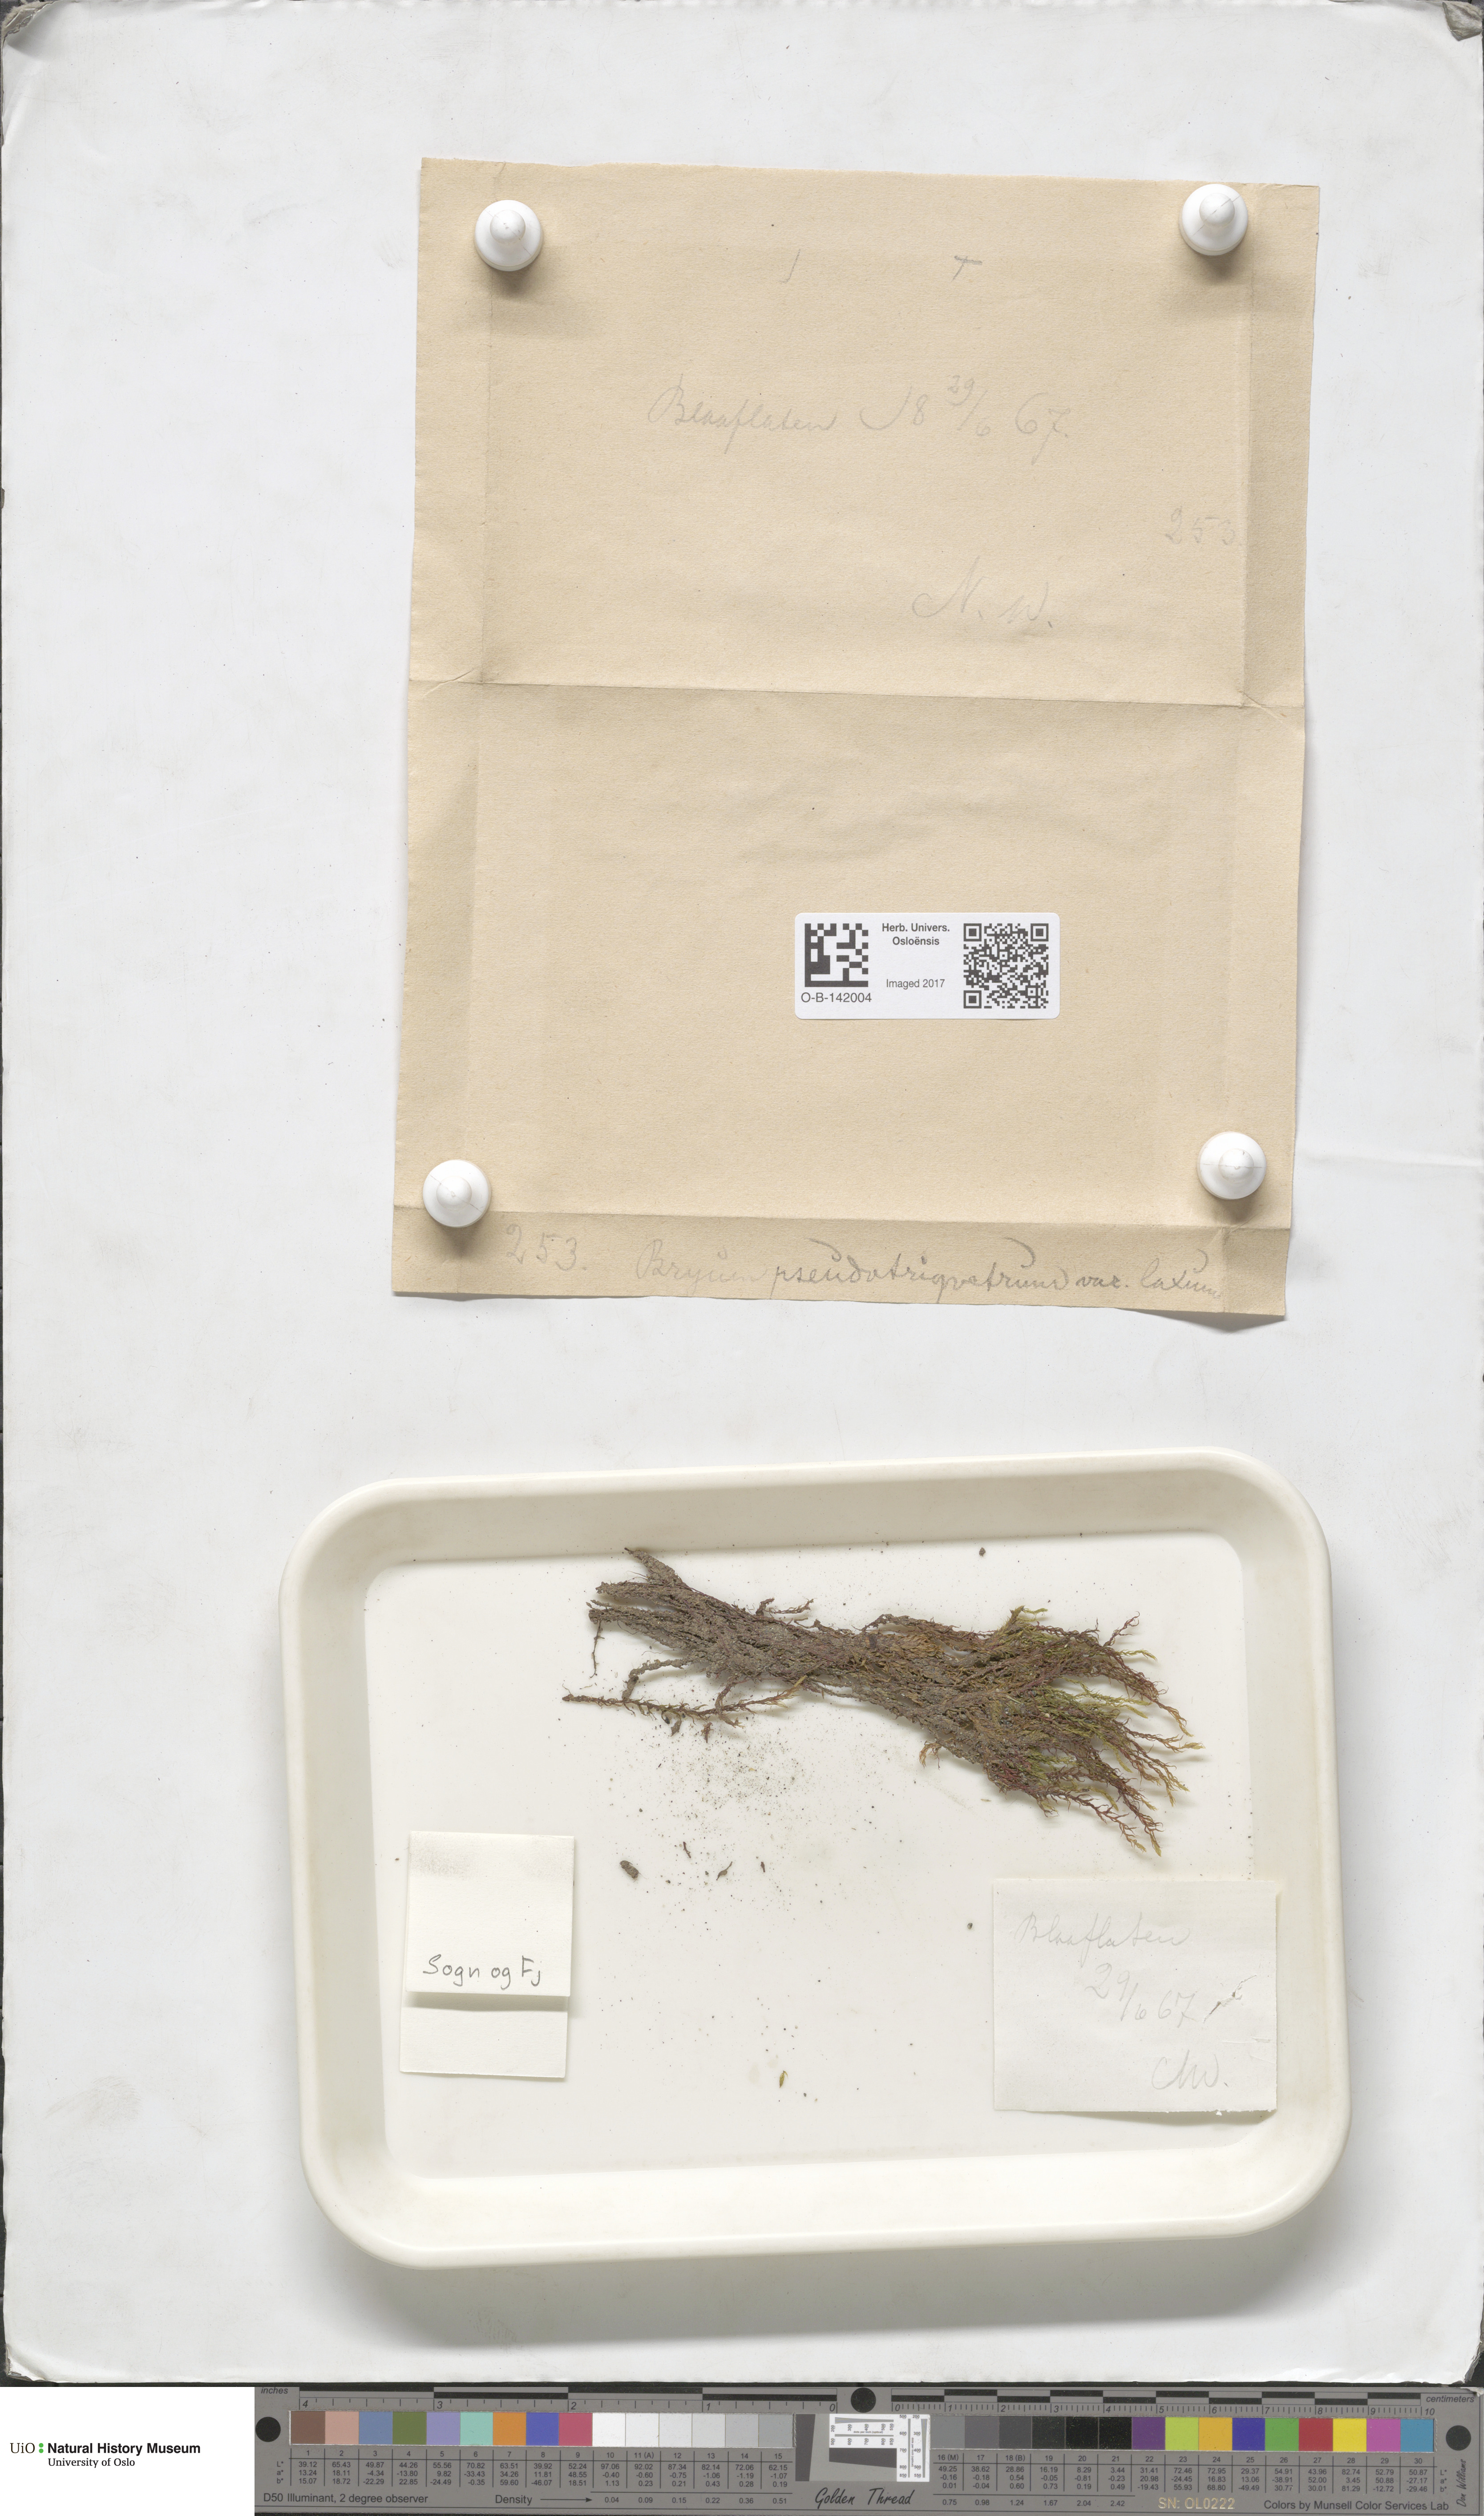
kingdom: Plantae
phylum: Bryophyta
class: Bryopsida
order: Bryales
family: Bryaceae
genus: Ptychostomum
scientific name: Ptychostomum pseudotriquetrum
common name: Long-leaved thread moss
